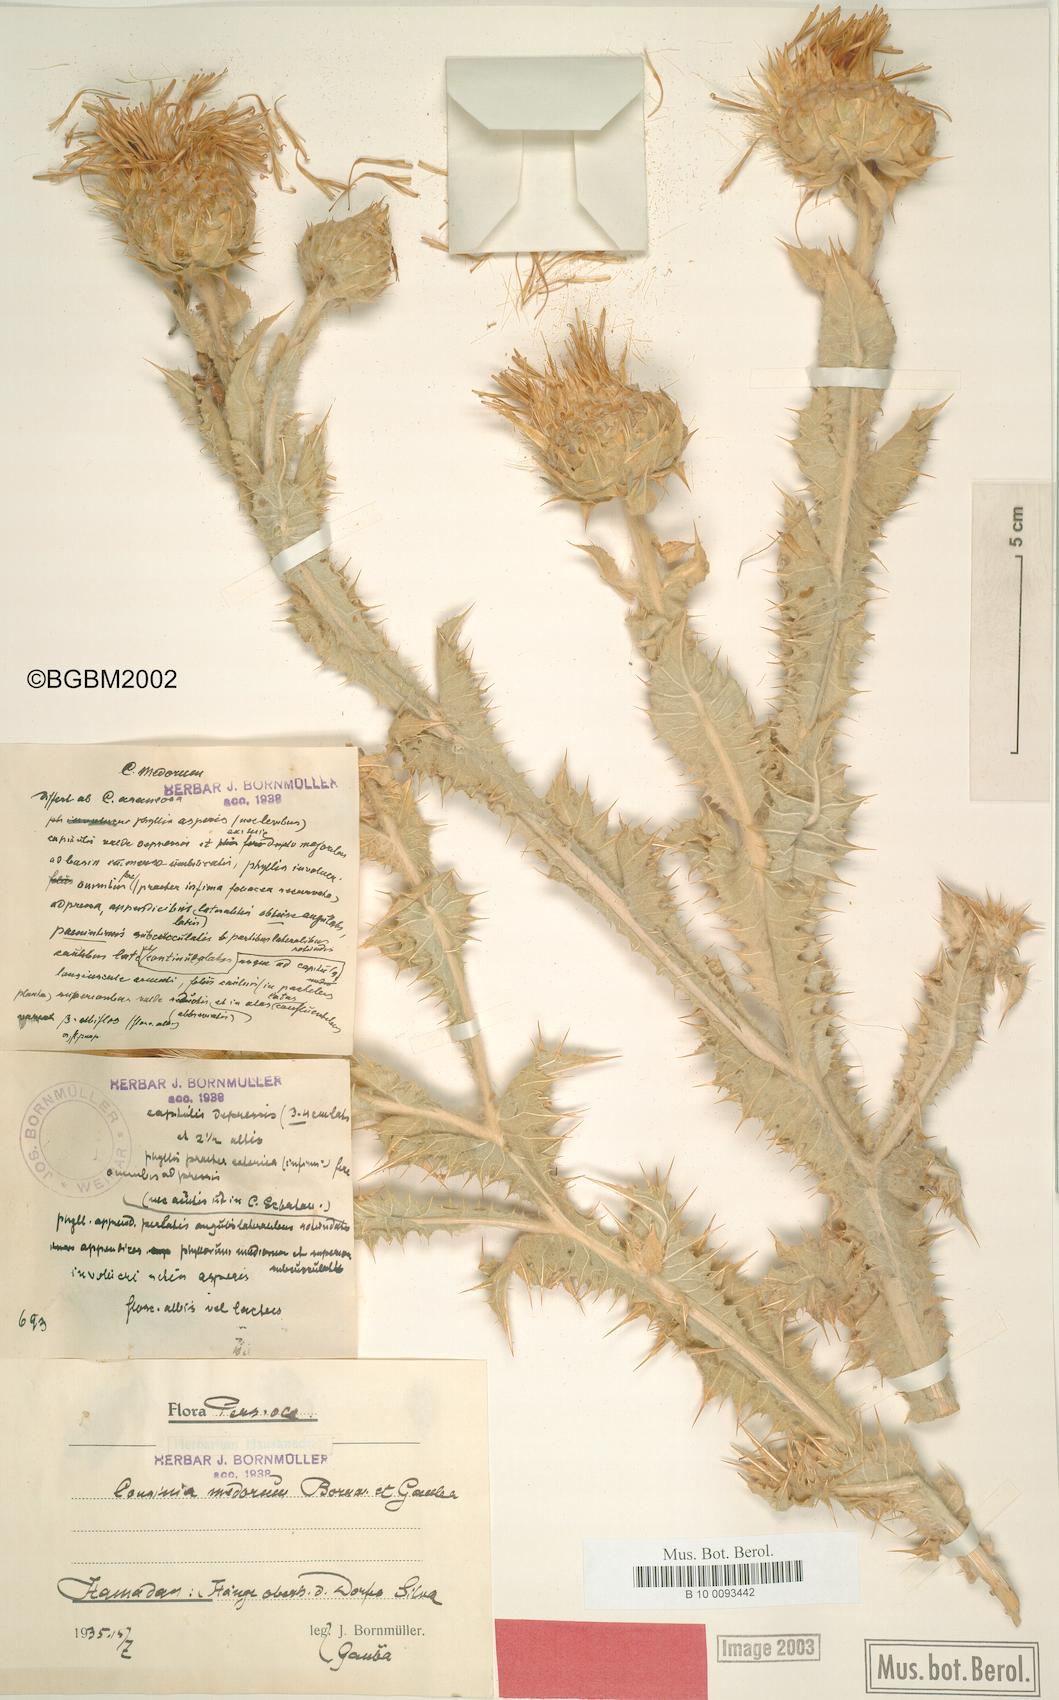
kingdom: Plantae
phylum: Tracheophyta
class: Magnoliopsida
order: Asterales
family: Asteraceae
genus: Cousinia
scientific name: Cousinia araneosa
